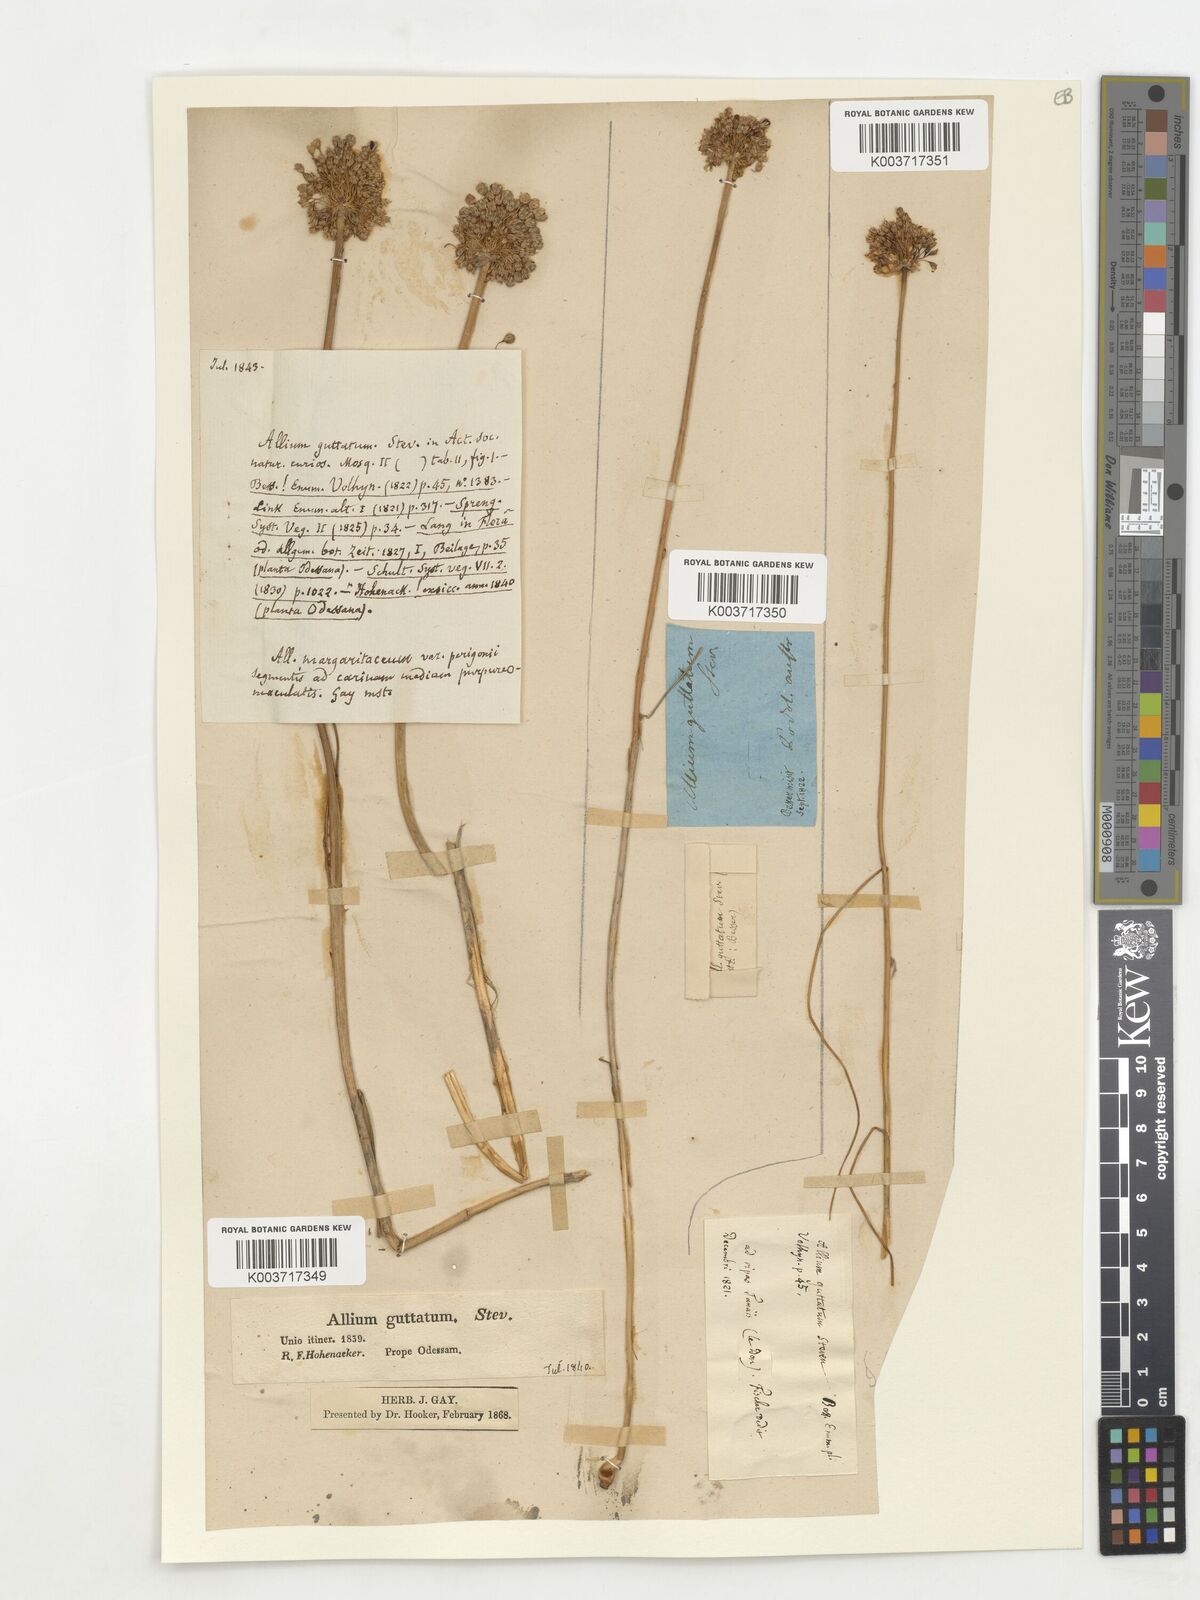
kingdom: Plantae
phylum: Tracheophyta
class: Liliopsida
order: Asparagales
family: Amaryllidaceae
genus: Allium
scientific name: Allium guttatum
